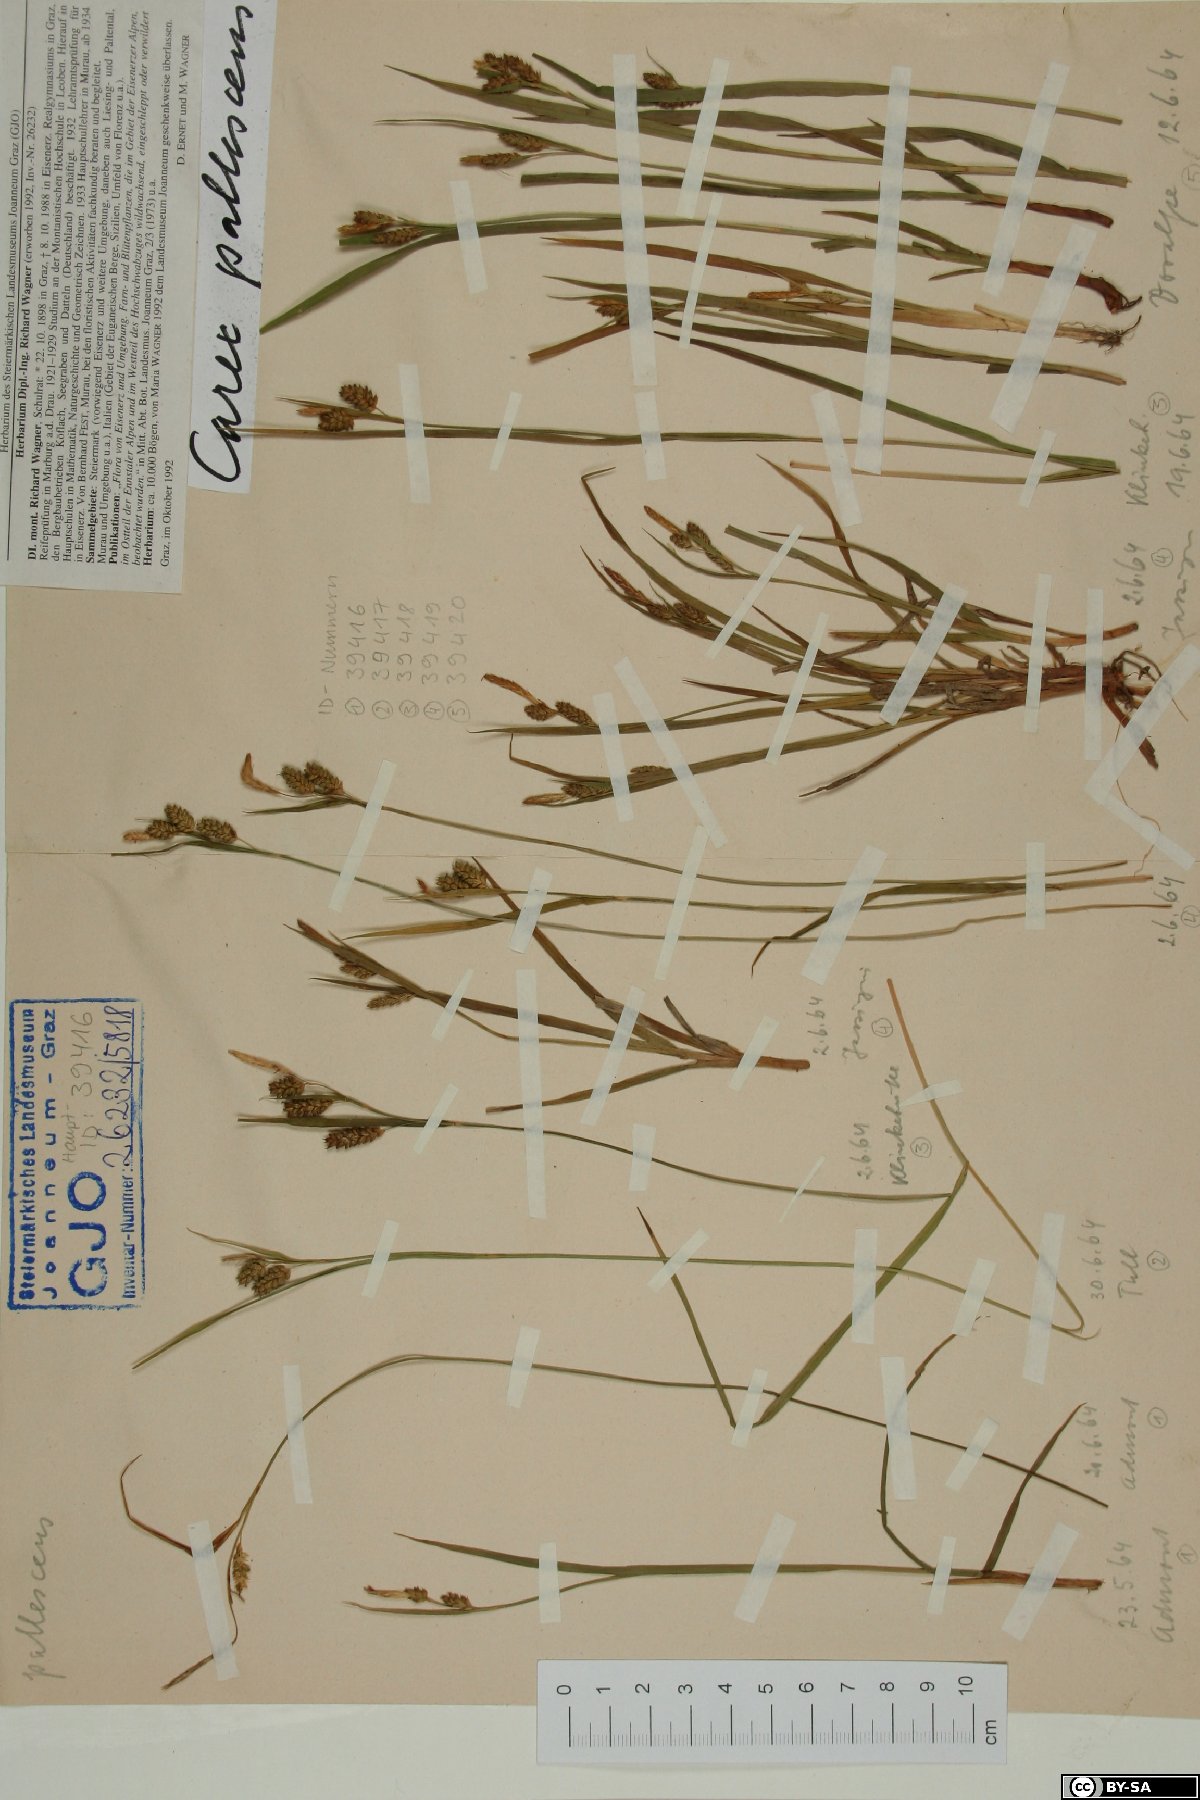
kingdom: Plantae
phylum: Tracheophyta
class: Liliopsida
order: Poales
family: Cyperaceae
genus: Carex
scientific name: Carex pallescens
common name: Pale sedge
